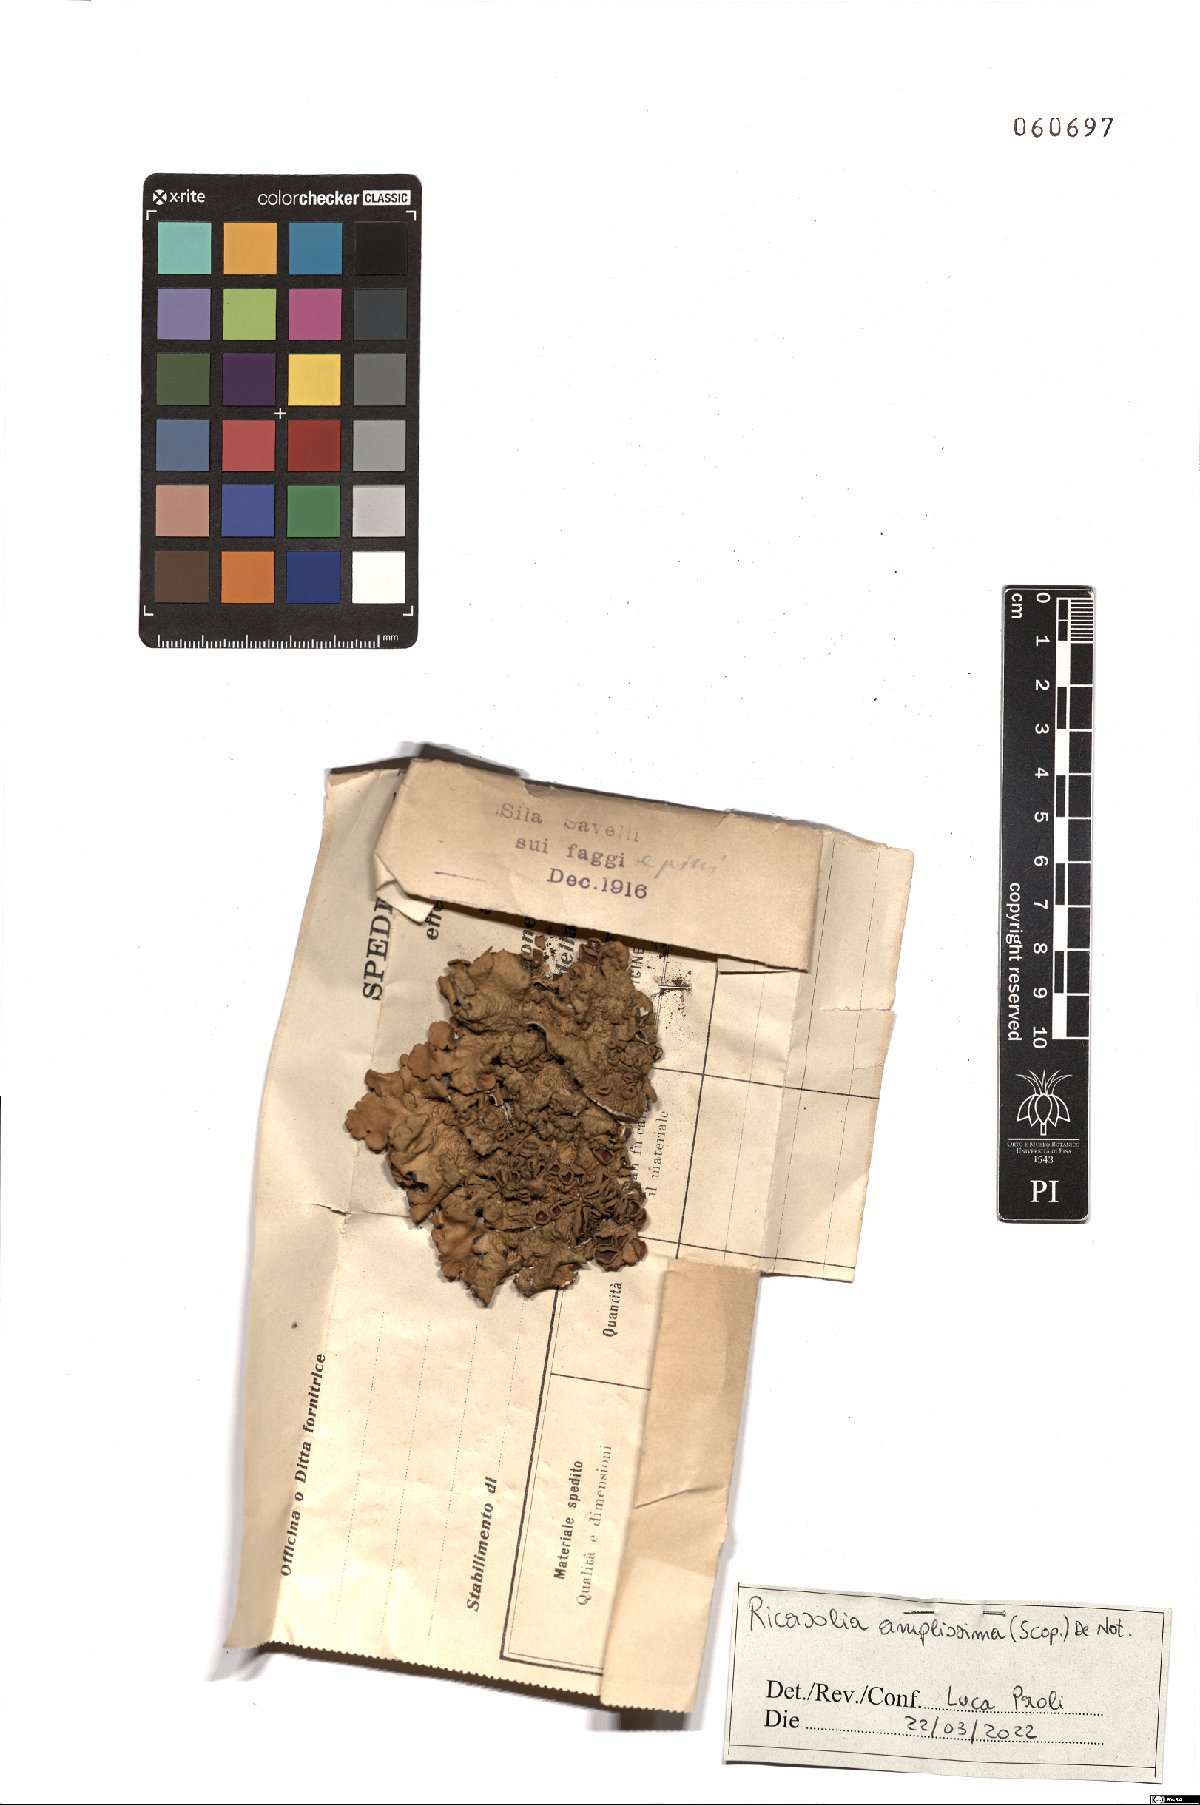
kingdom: Fungi
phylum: Ascomycota
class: Lecanoromycetes
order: Peltigerales
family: Lobariaceae
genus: Ricasolia
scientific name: Ricasolia amplissima
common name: Giant candlewax lichen
